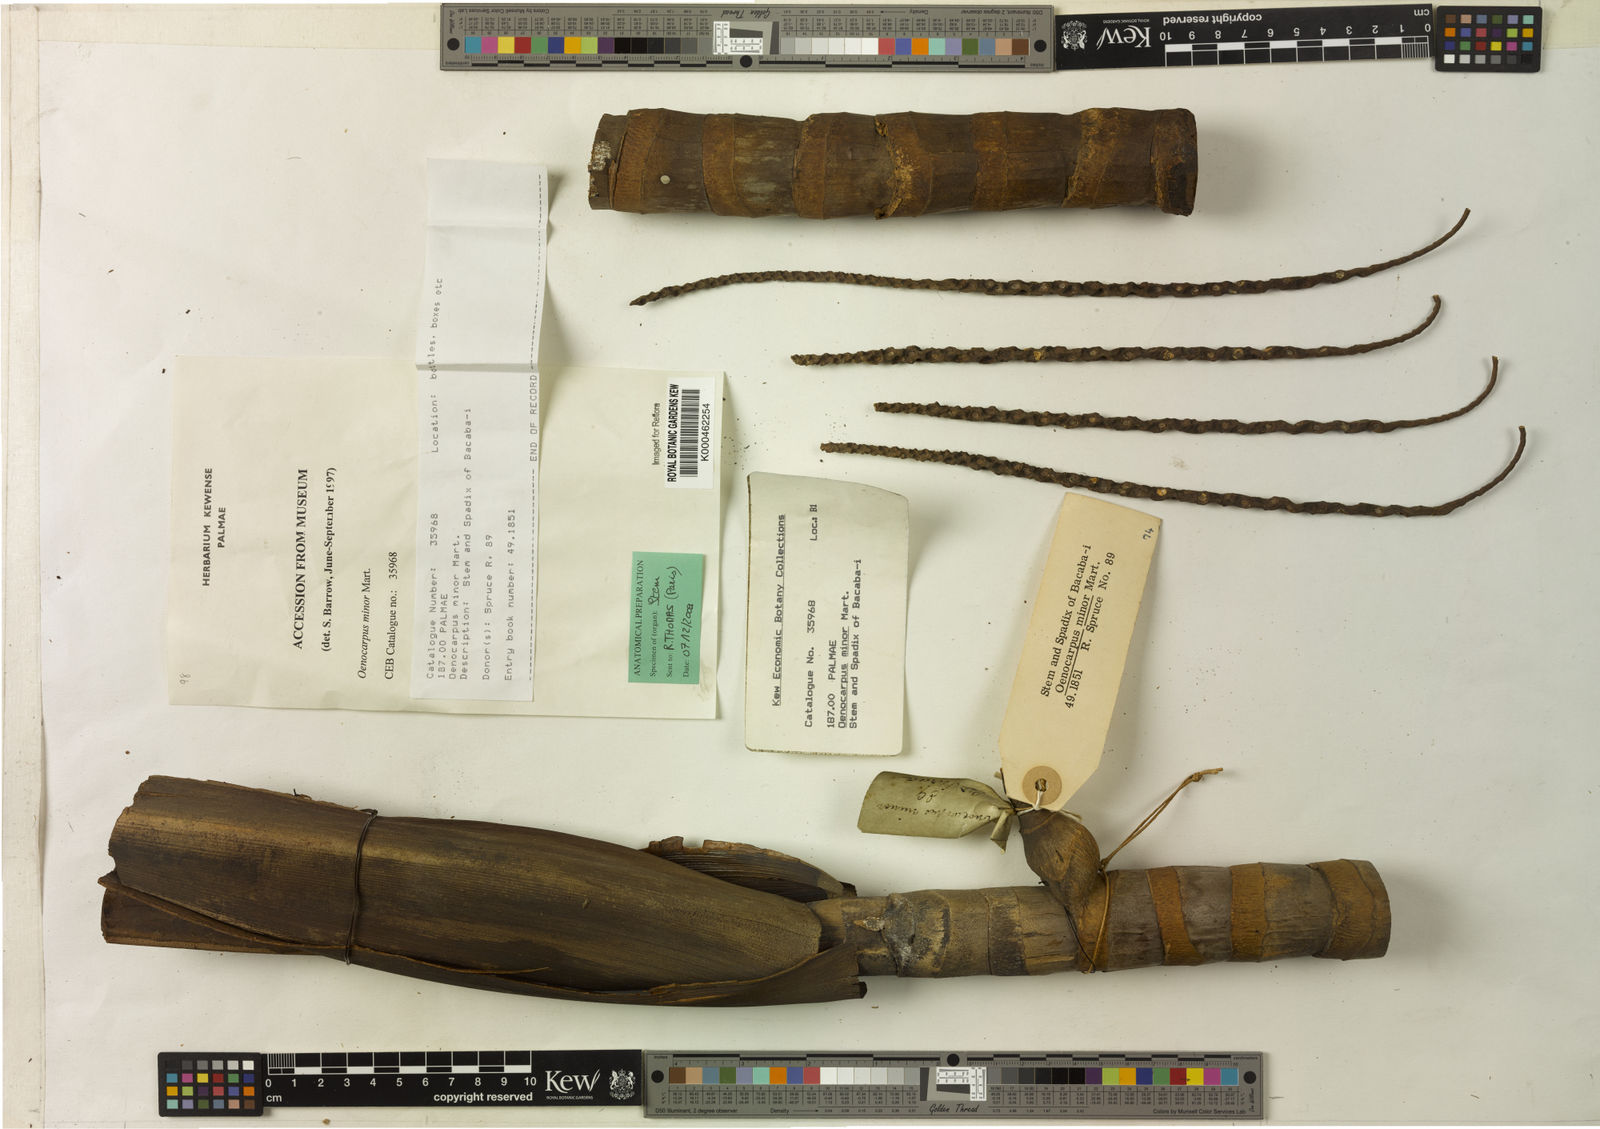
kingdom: Plantae
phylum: Tracheophyta
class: Liliopsida
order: Arecales
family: Arecaceae
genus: Oenocarpus
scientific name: Oenocarpus minor
